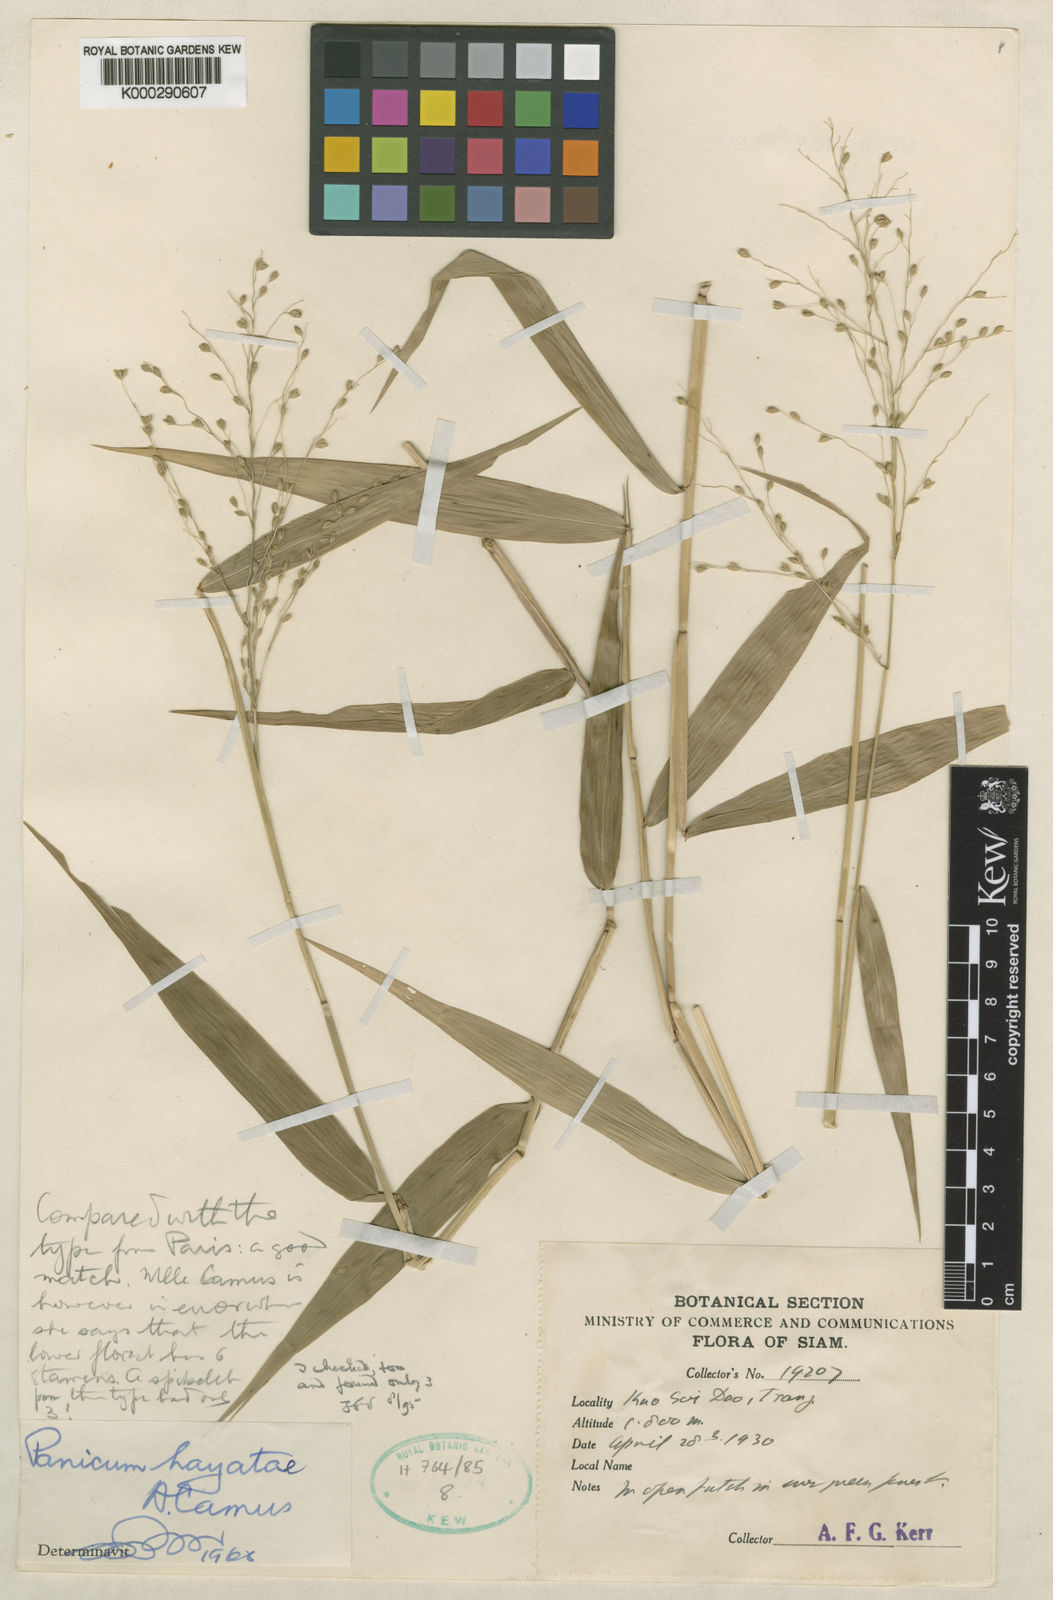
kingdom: Plantae
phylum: Tracheophyta
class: Liliopsida
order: Poales
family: Poaceae
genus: Panicum
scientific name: Panicum hayatae
